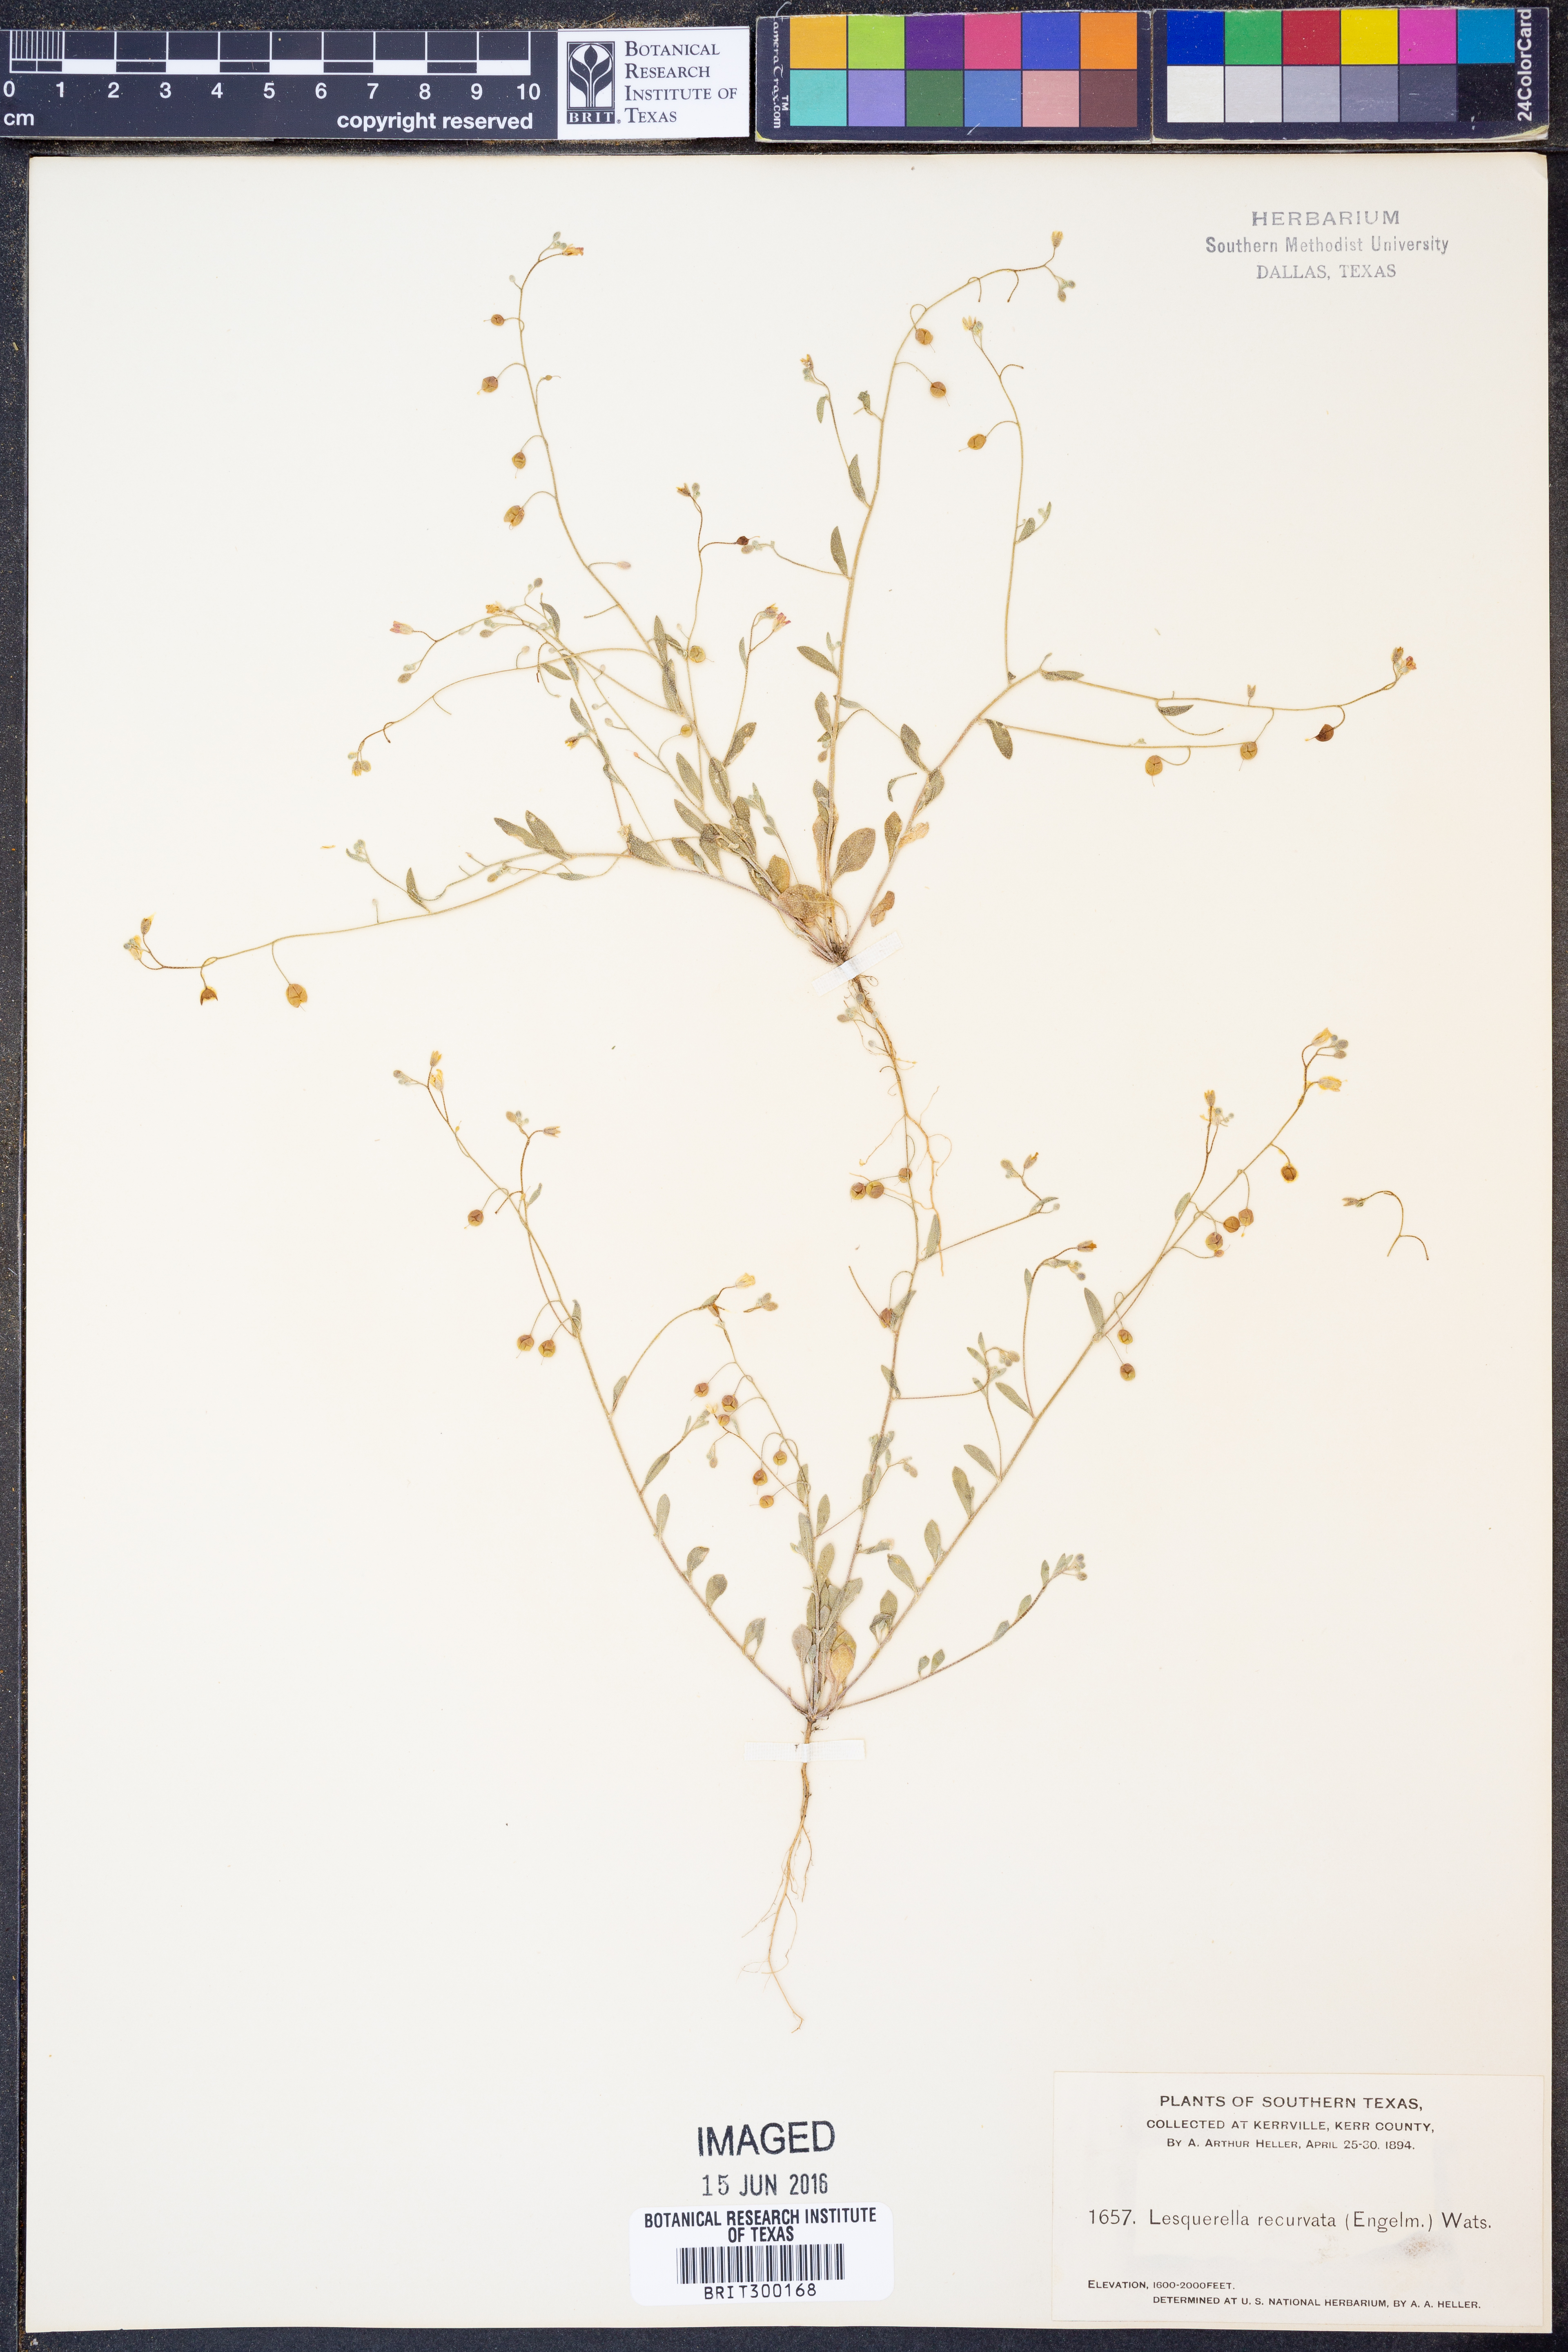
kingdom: Plantae
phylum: Tracheophyta
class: Magnoliopsida
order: Brassicales
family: Brassicaceae
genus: Physaria
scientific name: Physaria recurvata
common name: Gaslight bladderpod
